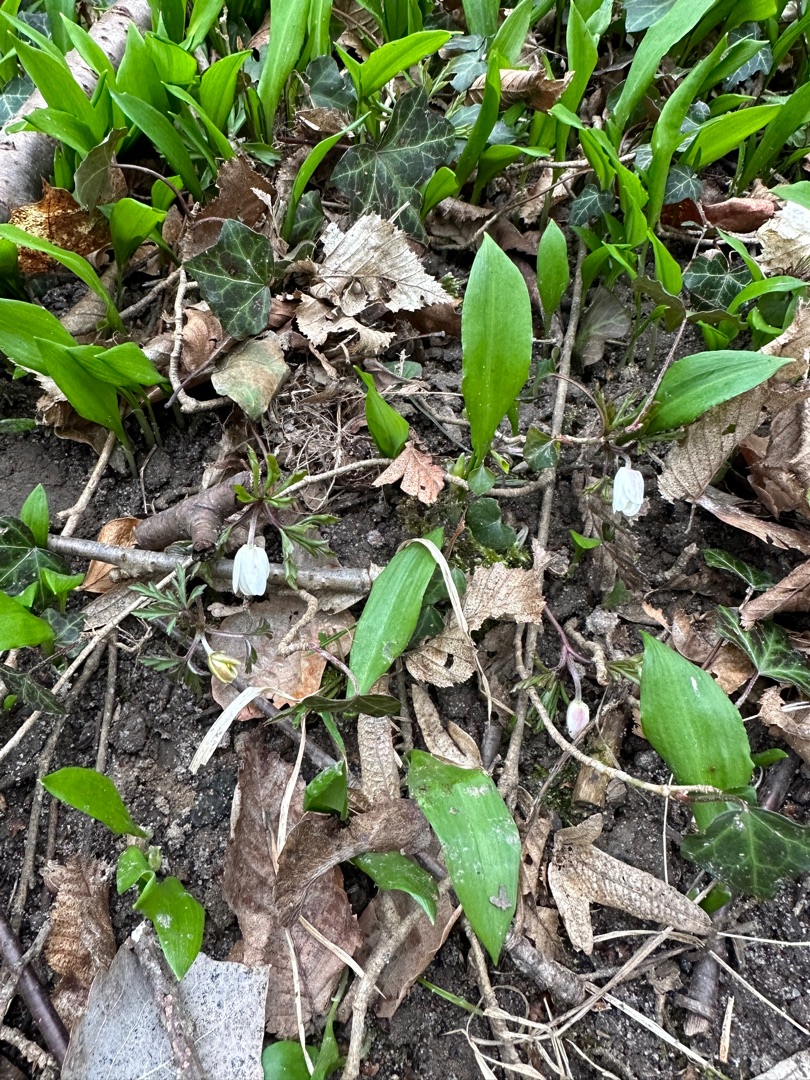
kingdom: Plantae
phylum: Tracheophyta
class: Magnoliopsida
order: Ranunculales
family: Ranunculaceae
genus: Anemone
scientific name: Anemone nemorosa
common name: Hvid anemone
